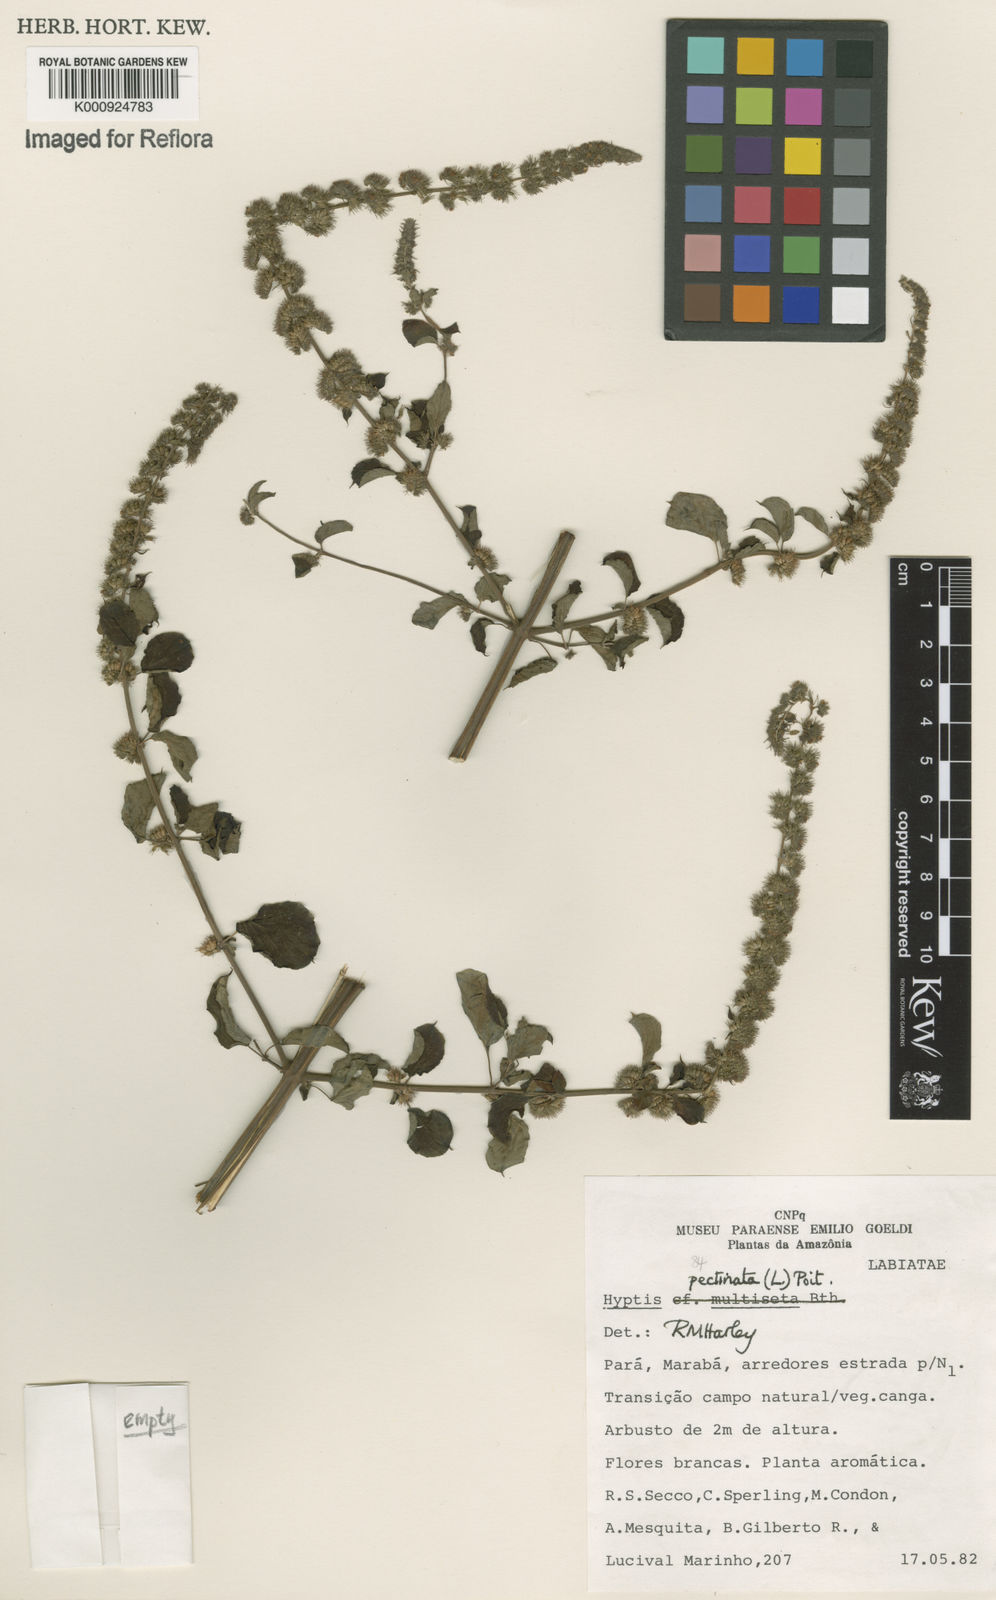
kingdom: Plantae
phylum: Tracheophyta
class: Magnoliopsida
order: Lamiales
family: Lamiaceae
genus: Mesosphaerum
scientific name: Mesosphaerum pectinatum
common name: Comb hyptis
